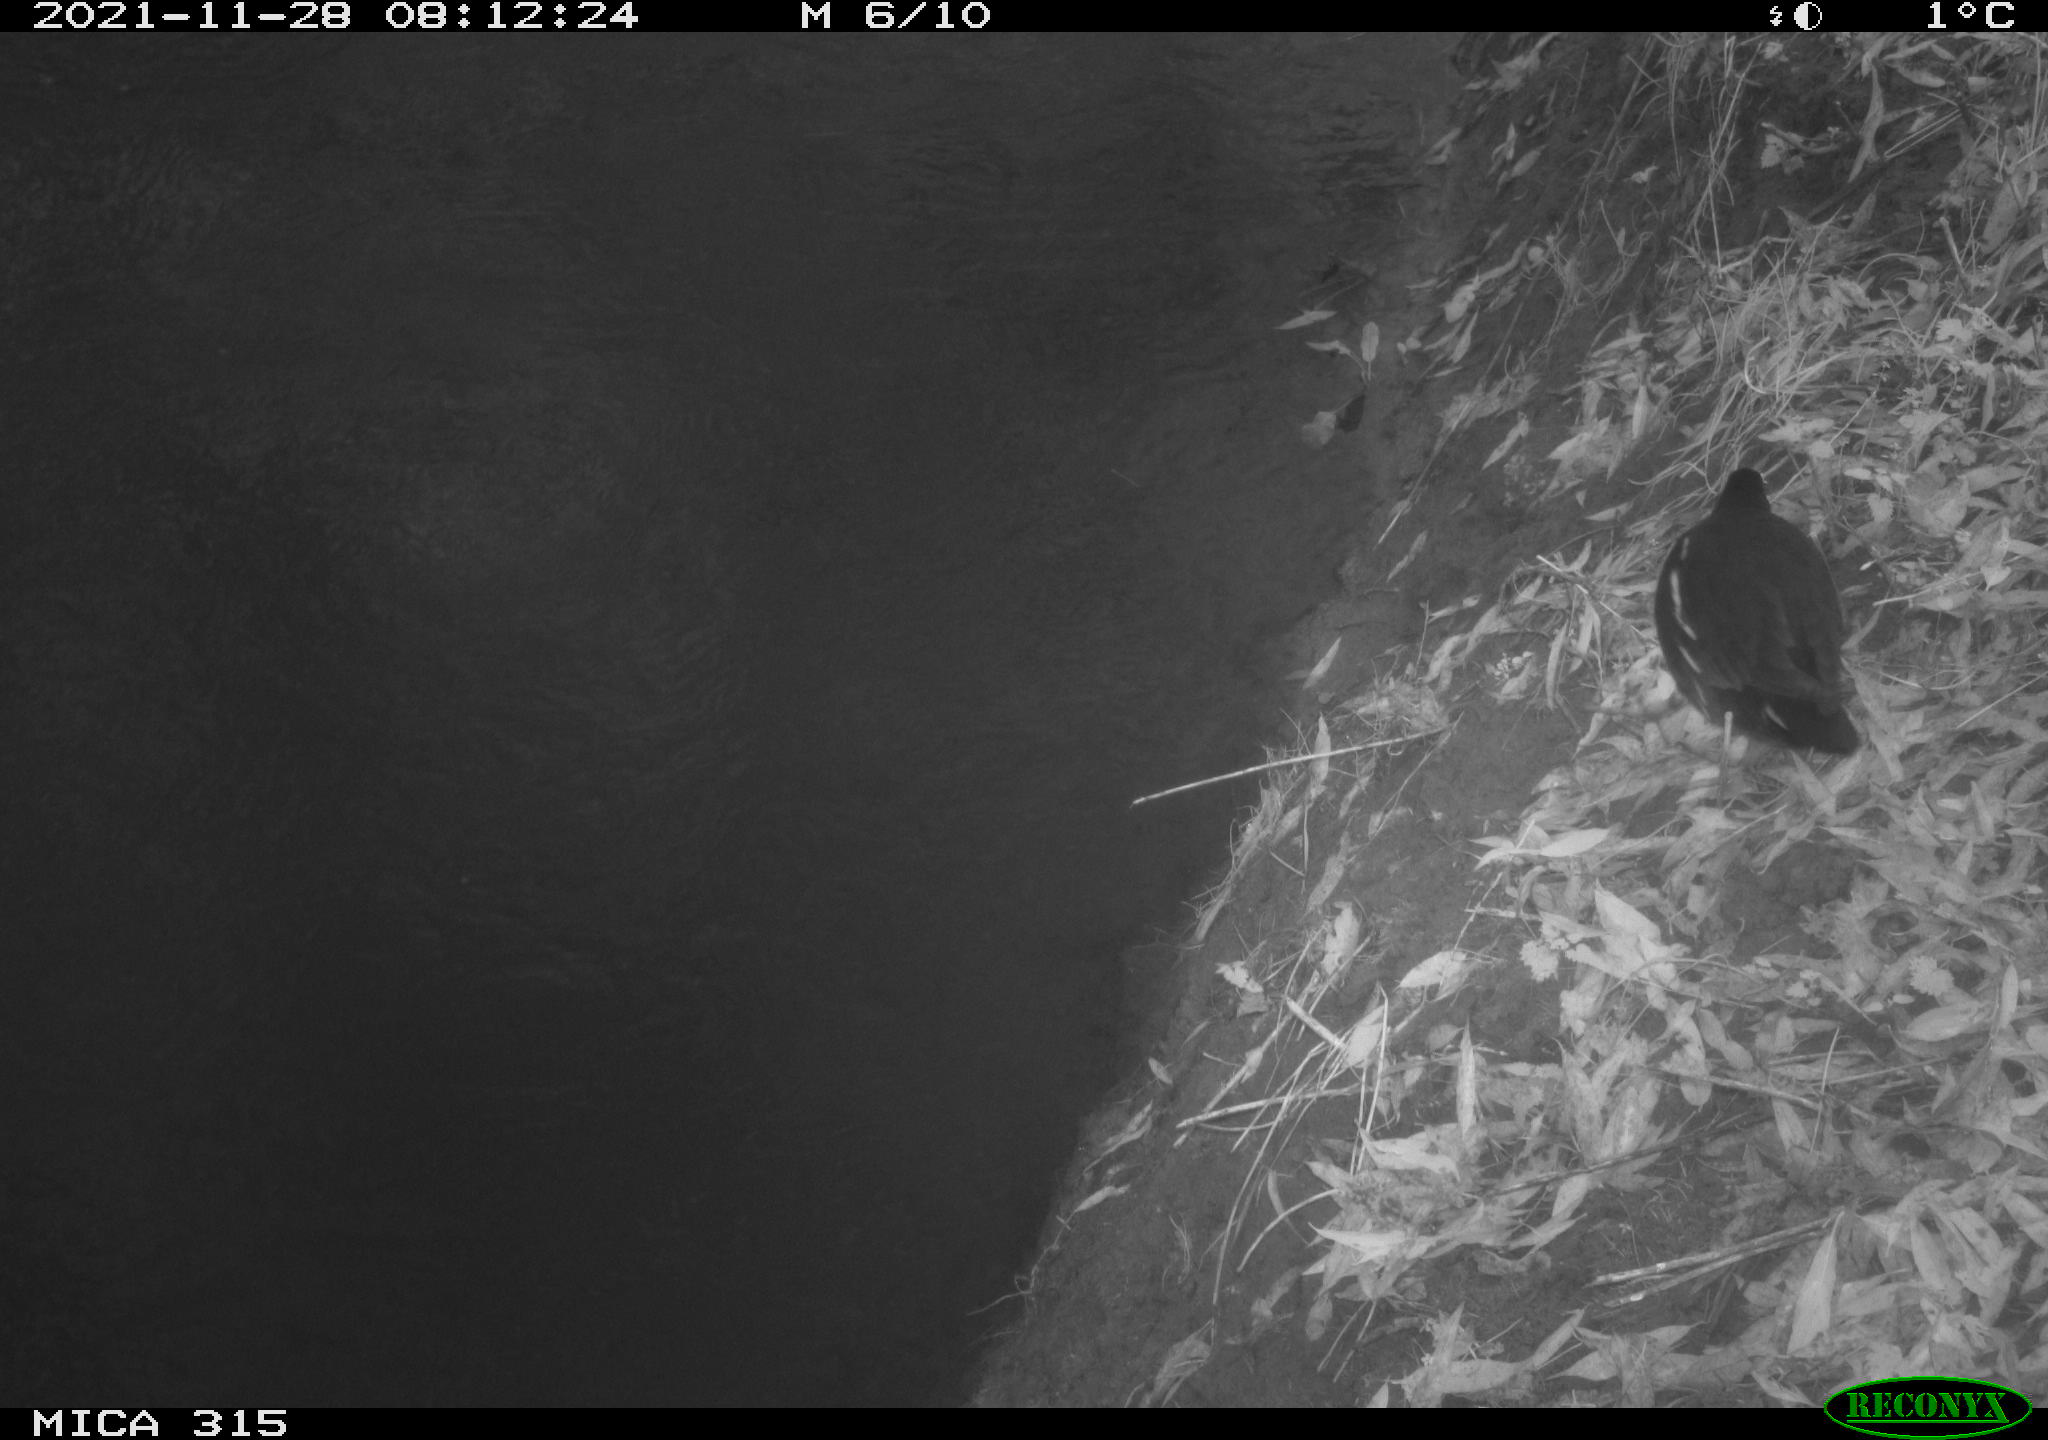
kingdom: Animalia
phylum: Chordata
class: Aves
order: Gruiformes
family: Rallidae
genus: Gallinula
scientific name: Gallinula chloropus
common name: Common moorhen
